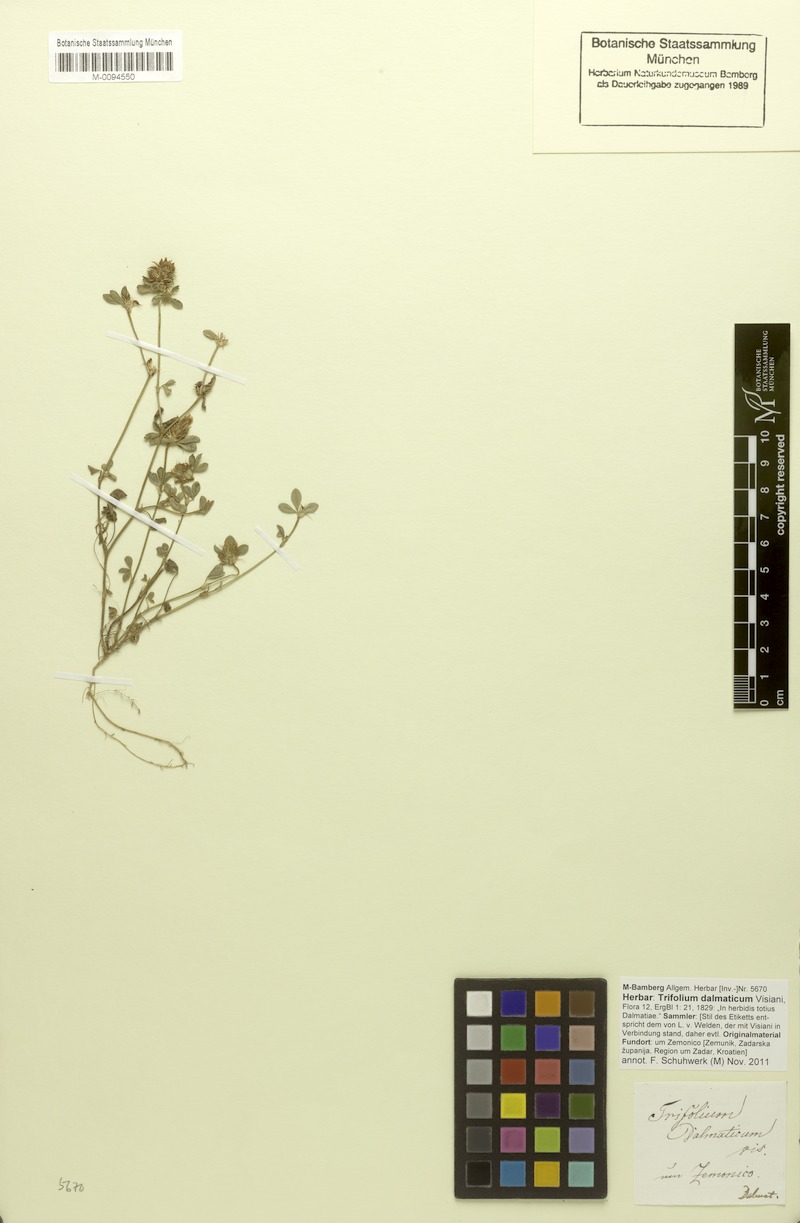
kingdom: Plantae
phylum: Tracheophyta
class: Magnoliopsida
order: Fabales
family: Fabaceae
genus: Trifolium
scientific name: Trifolium dalmaticum
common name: Dalmatian clover
